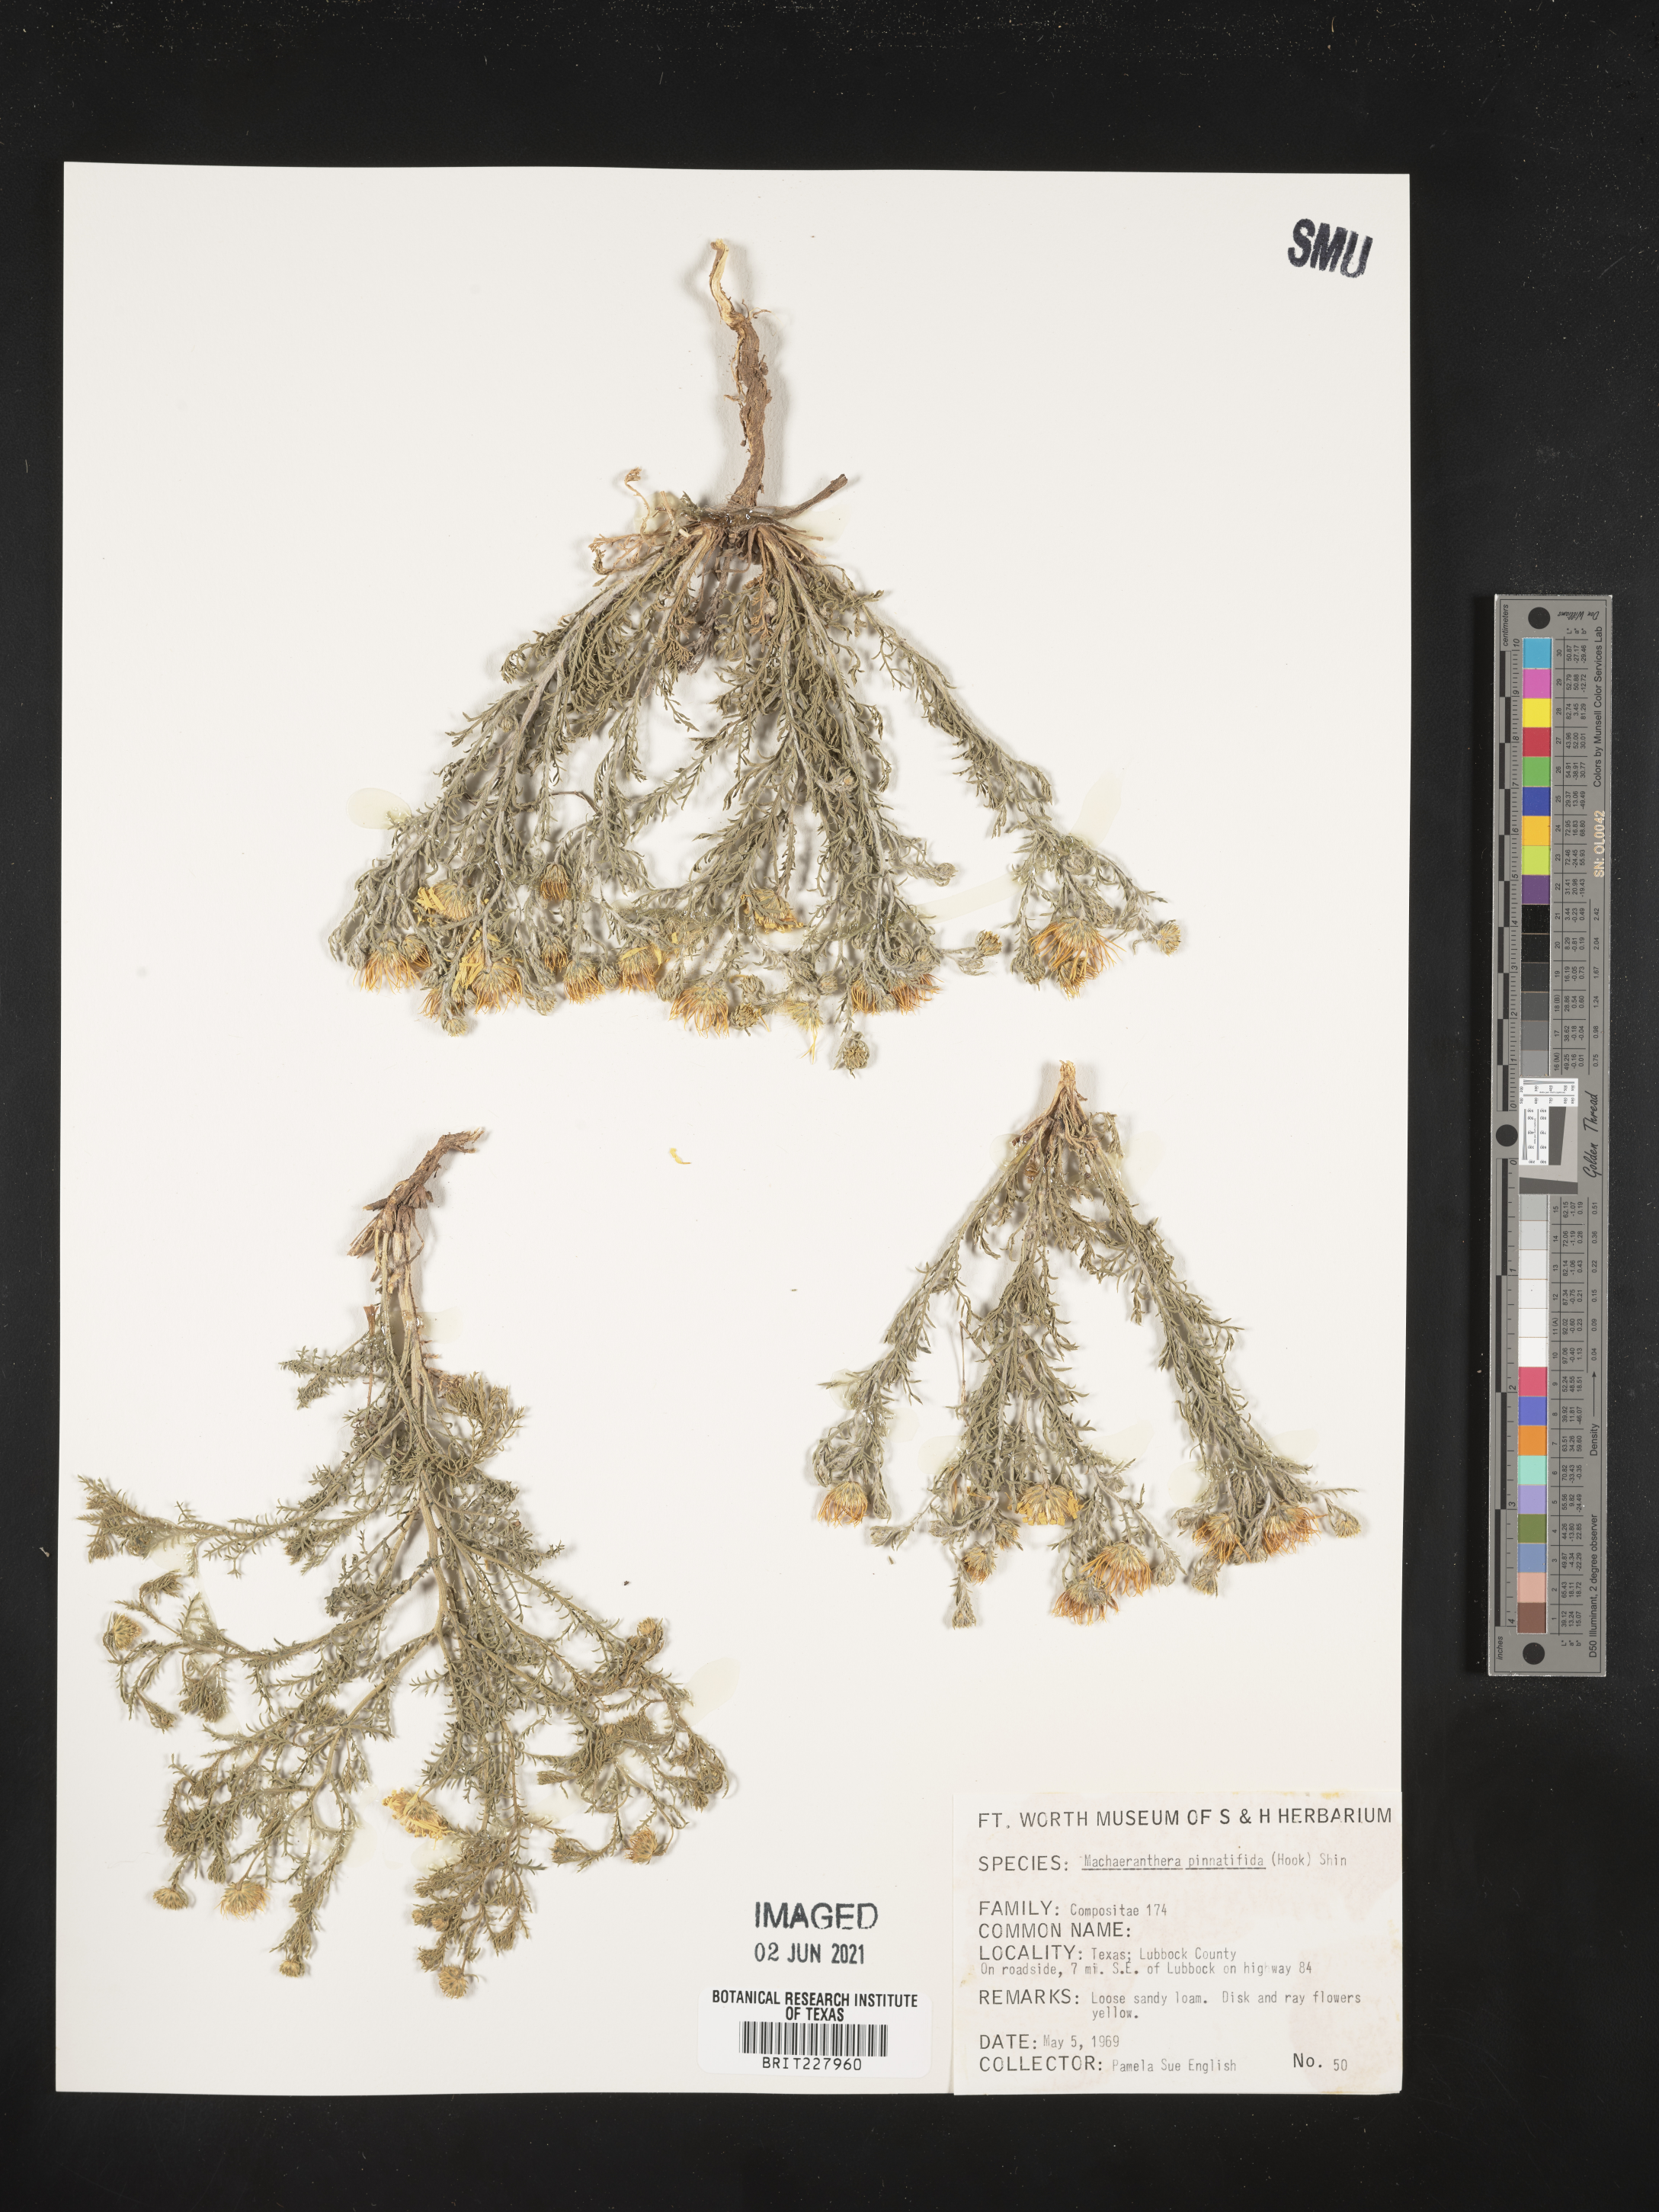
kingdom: Plantae
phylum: Tracheophyta
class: Magnoliopsida
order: Asterales
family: Asteraceae
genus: Xanthisma
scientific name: Xanthisma spinulosum
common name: Spiny goldenweed
